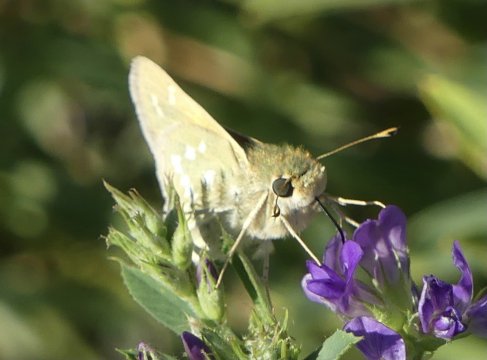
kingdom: Animalia
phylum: Arthropoda
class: Insecta
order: Lepidoptera
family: Hesperiidae
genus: Hesperia
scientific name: Hesperia
